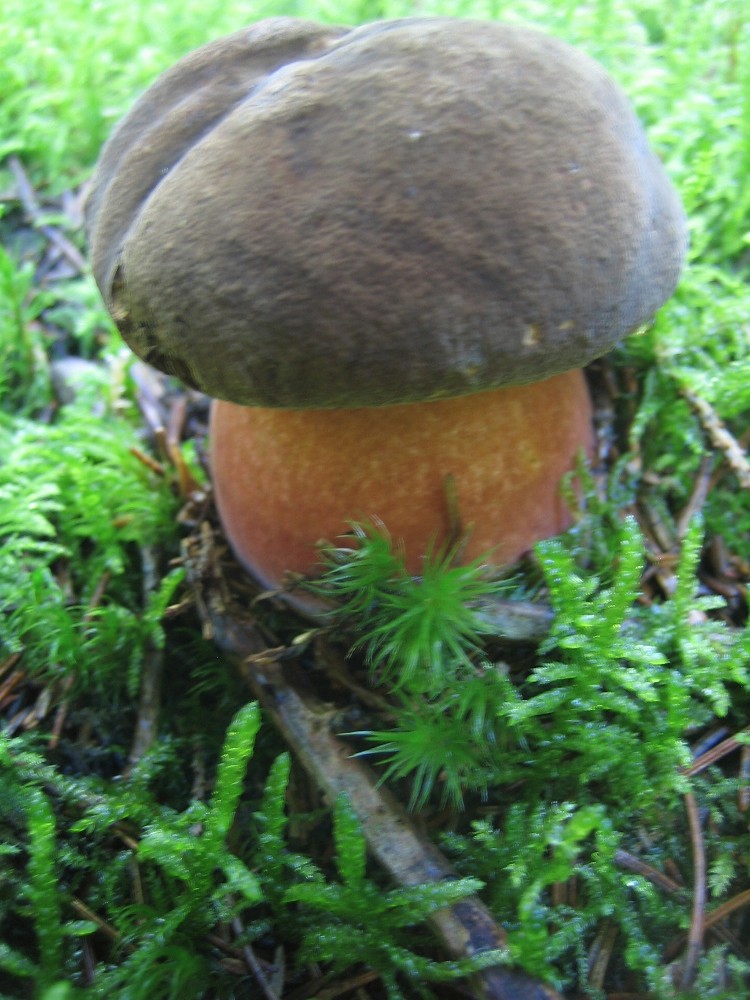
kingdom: Fungi
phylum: Basidiomycota
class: Agaricomycetes
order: Boletales
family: Boletaceae
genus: Neoboletus
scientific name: Neoboletus erythropus
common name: punktstokket indigorørhat
